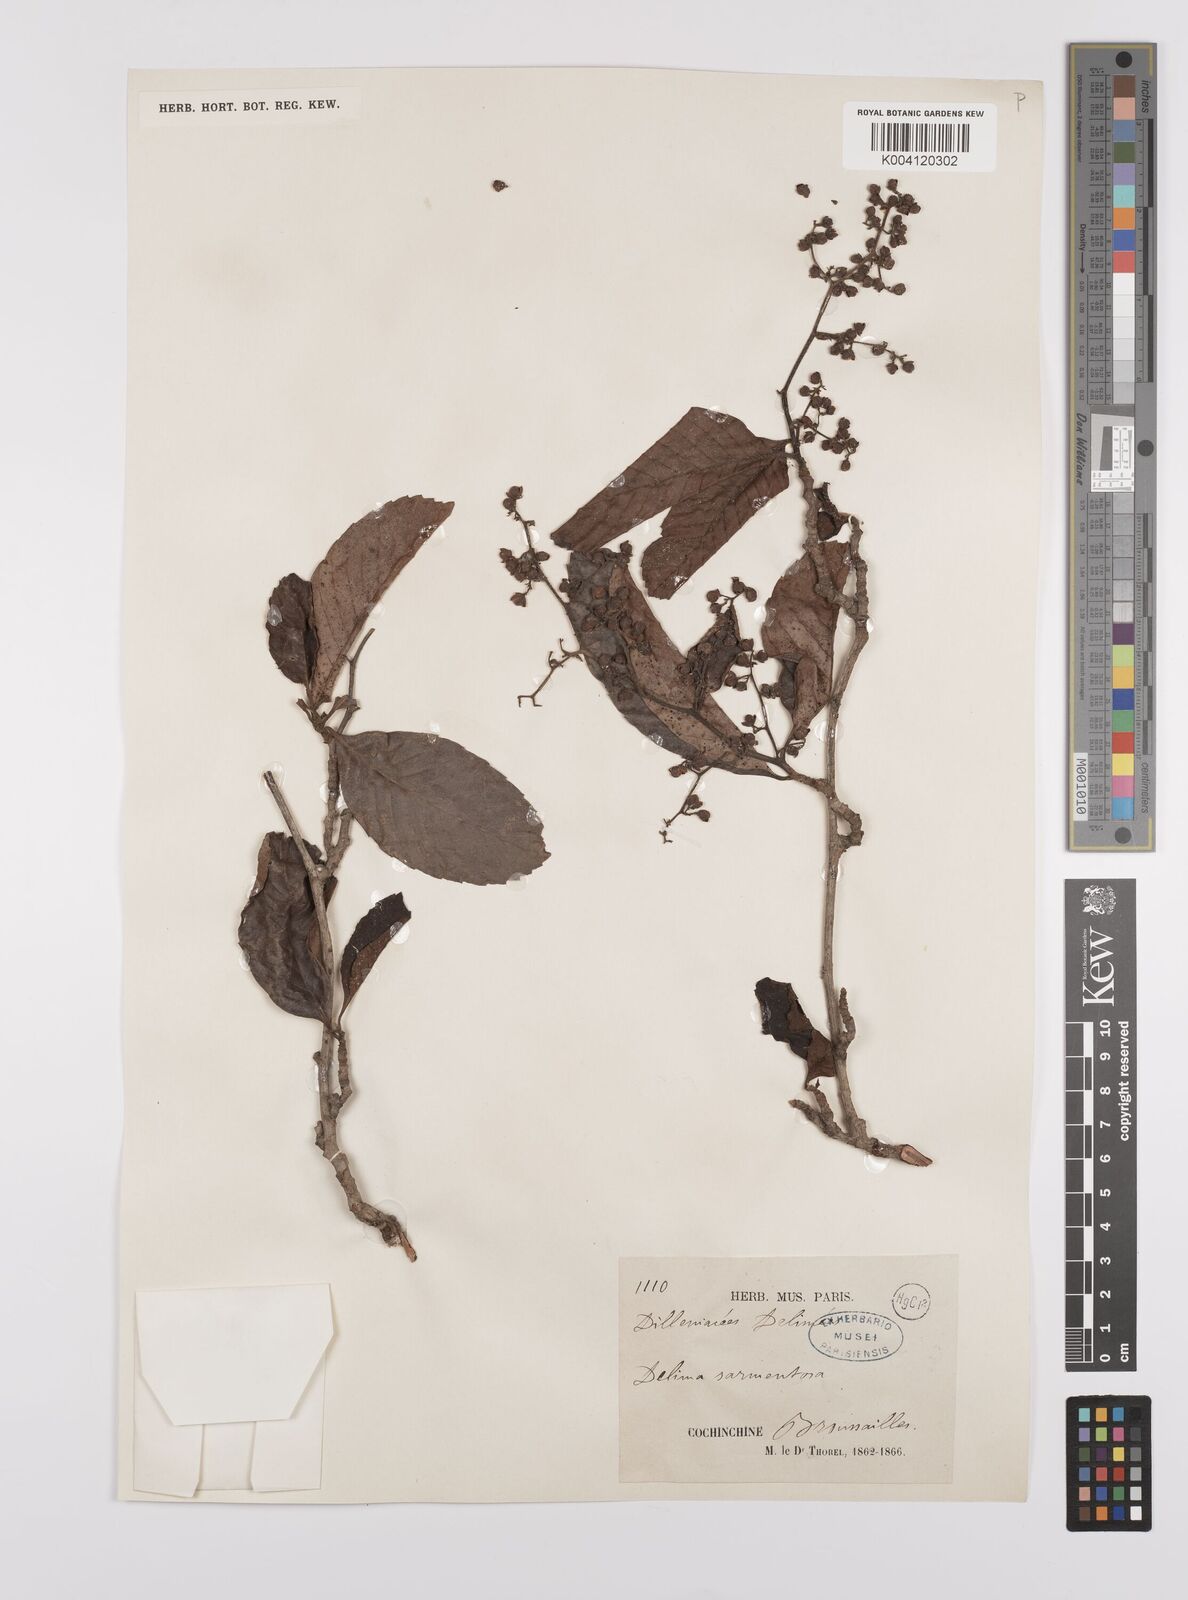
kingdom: Plantae
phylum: Tracheophyta
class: Magnoliopsida
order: Dilleniales
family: Dilleniaceae
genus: Tetracera
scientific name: Tetracera sarmentosa
